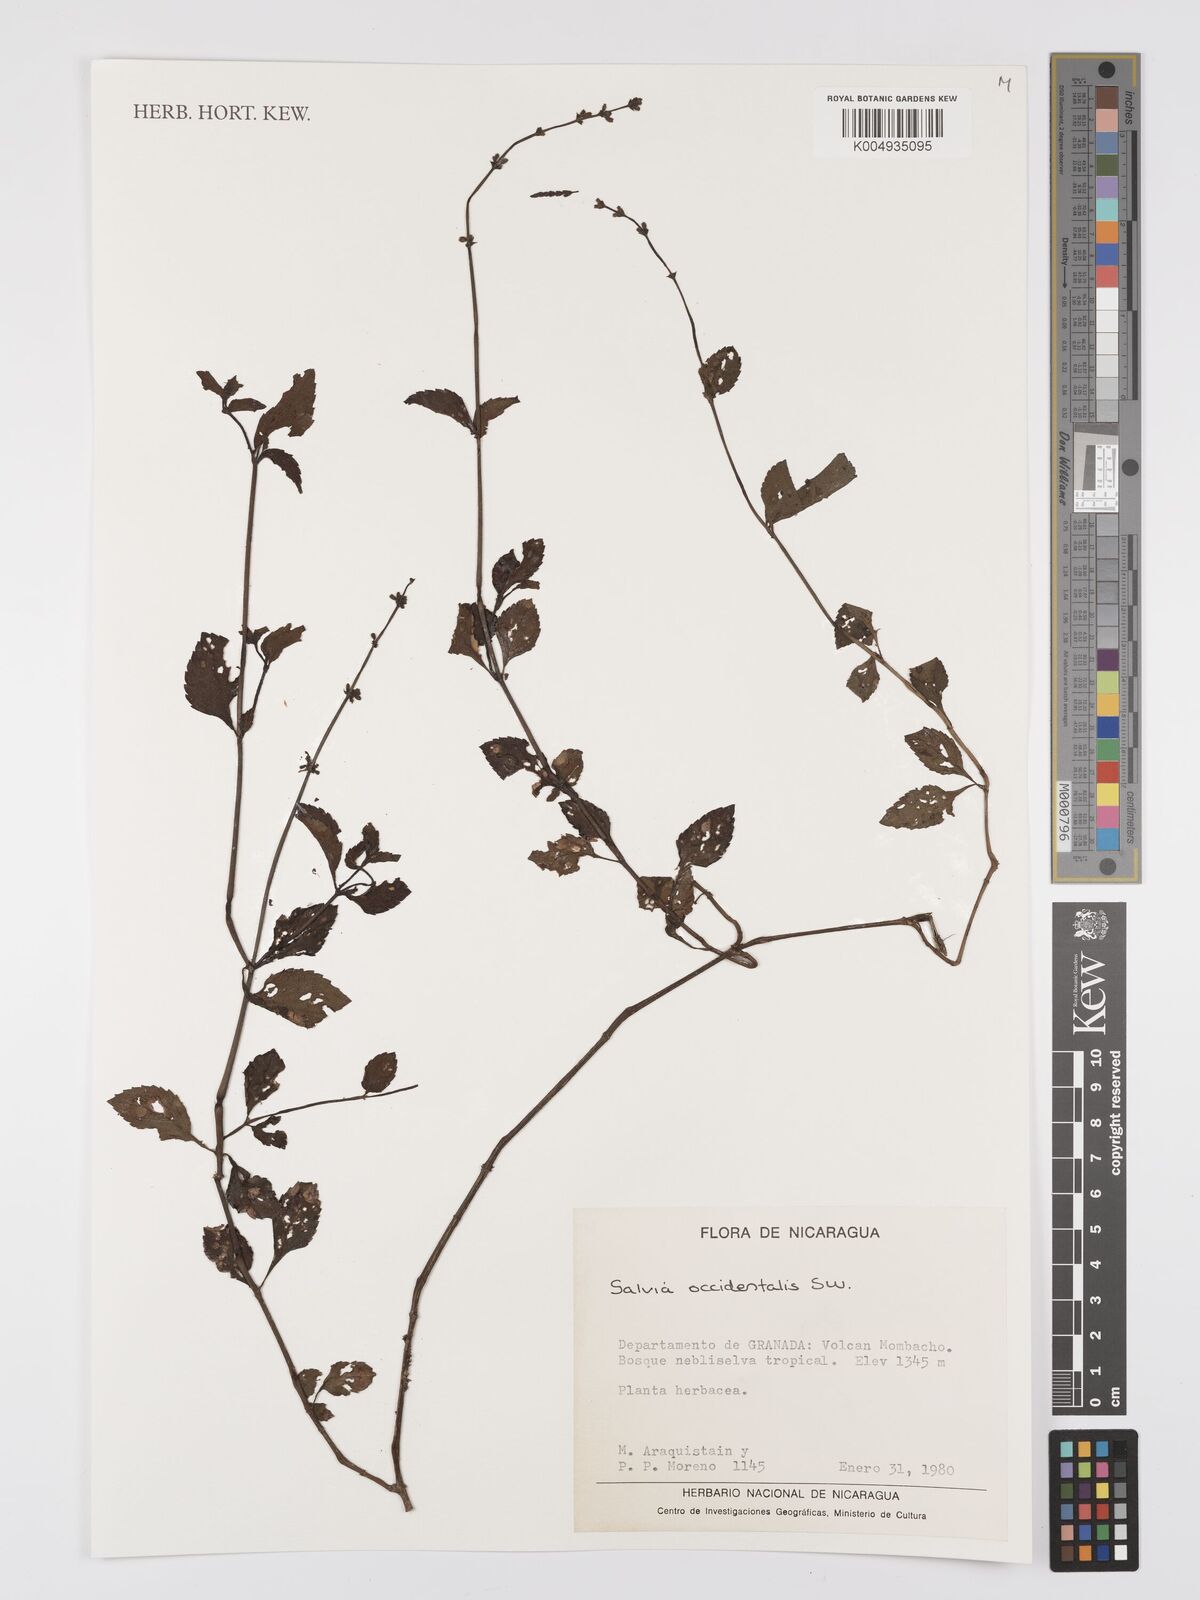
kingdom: Plantae
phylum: Tracheophyta
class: Magnoliopsida
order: Lamiales
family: Lamiaceae
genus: Salvia
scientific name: Salvia occidentalis
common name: West indian sage
